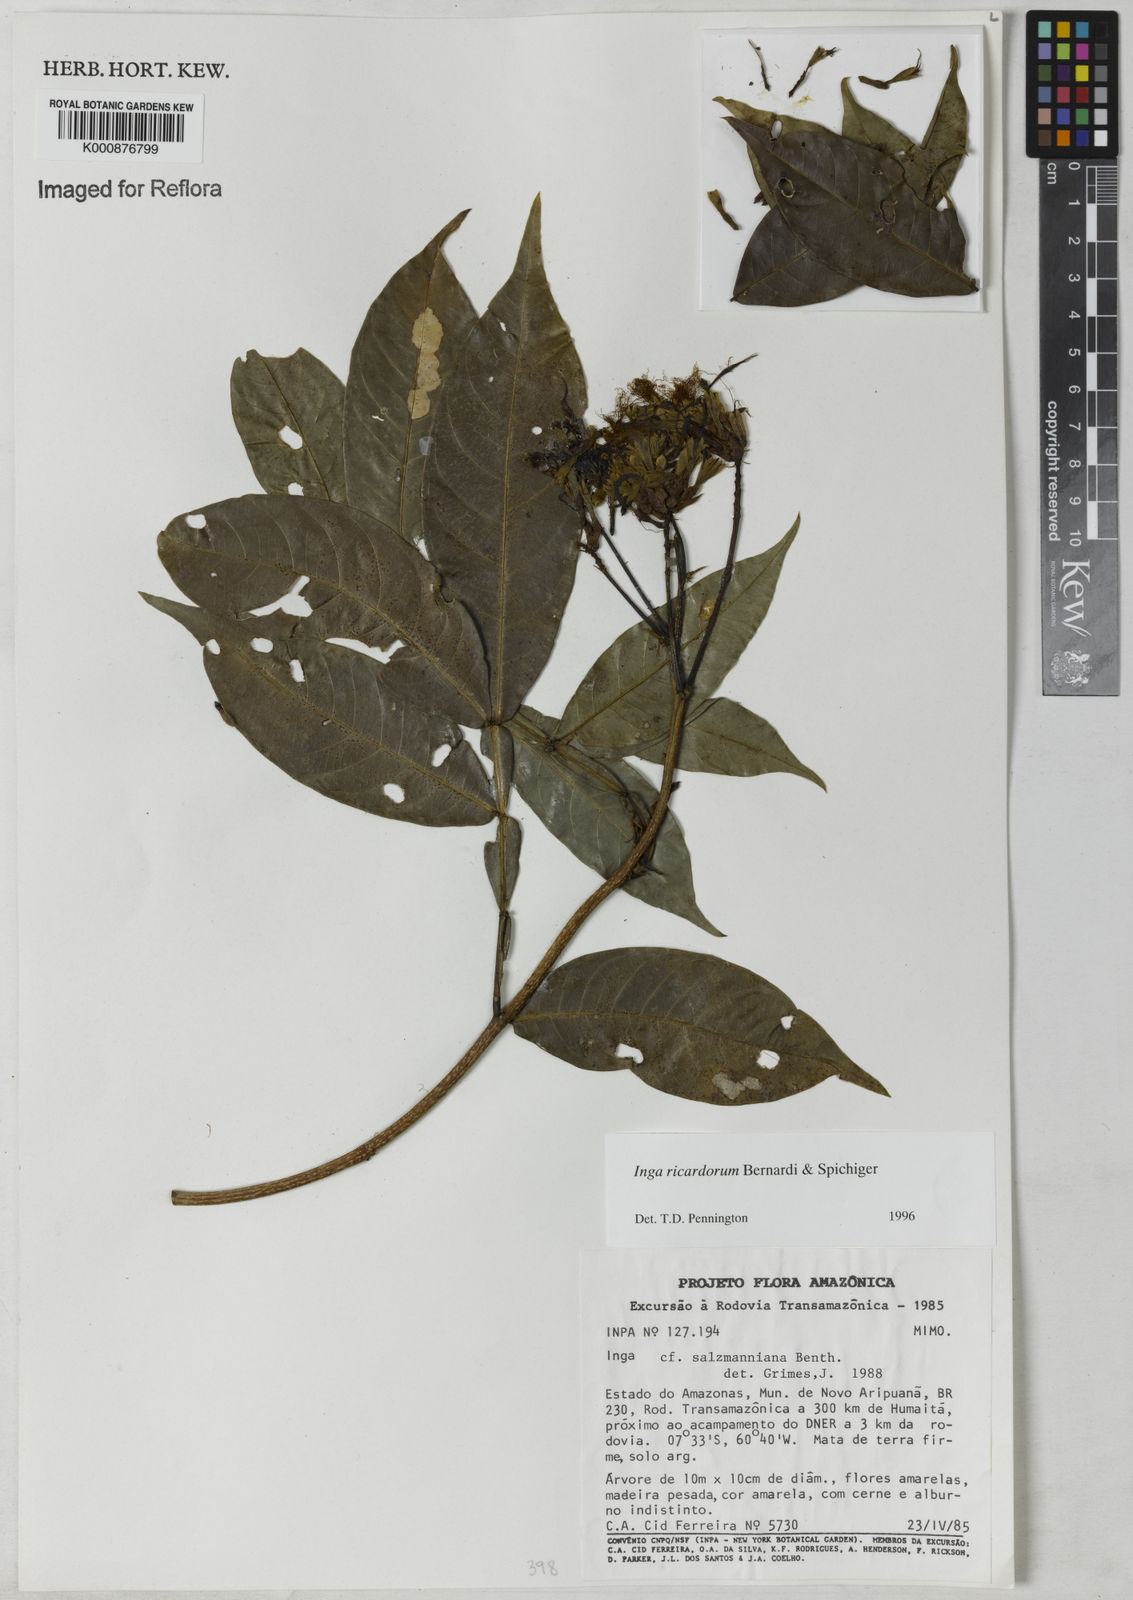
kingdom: Plantae
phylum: Tracheophyta
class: Magnoliopsida
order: Fabales
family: Fabaceae
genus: Inga
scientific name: Inga chrysantha
